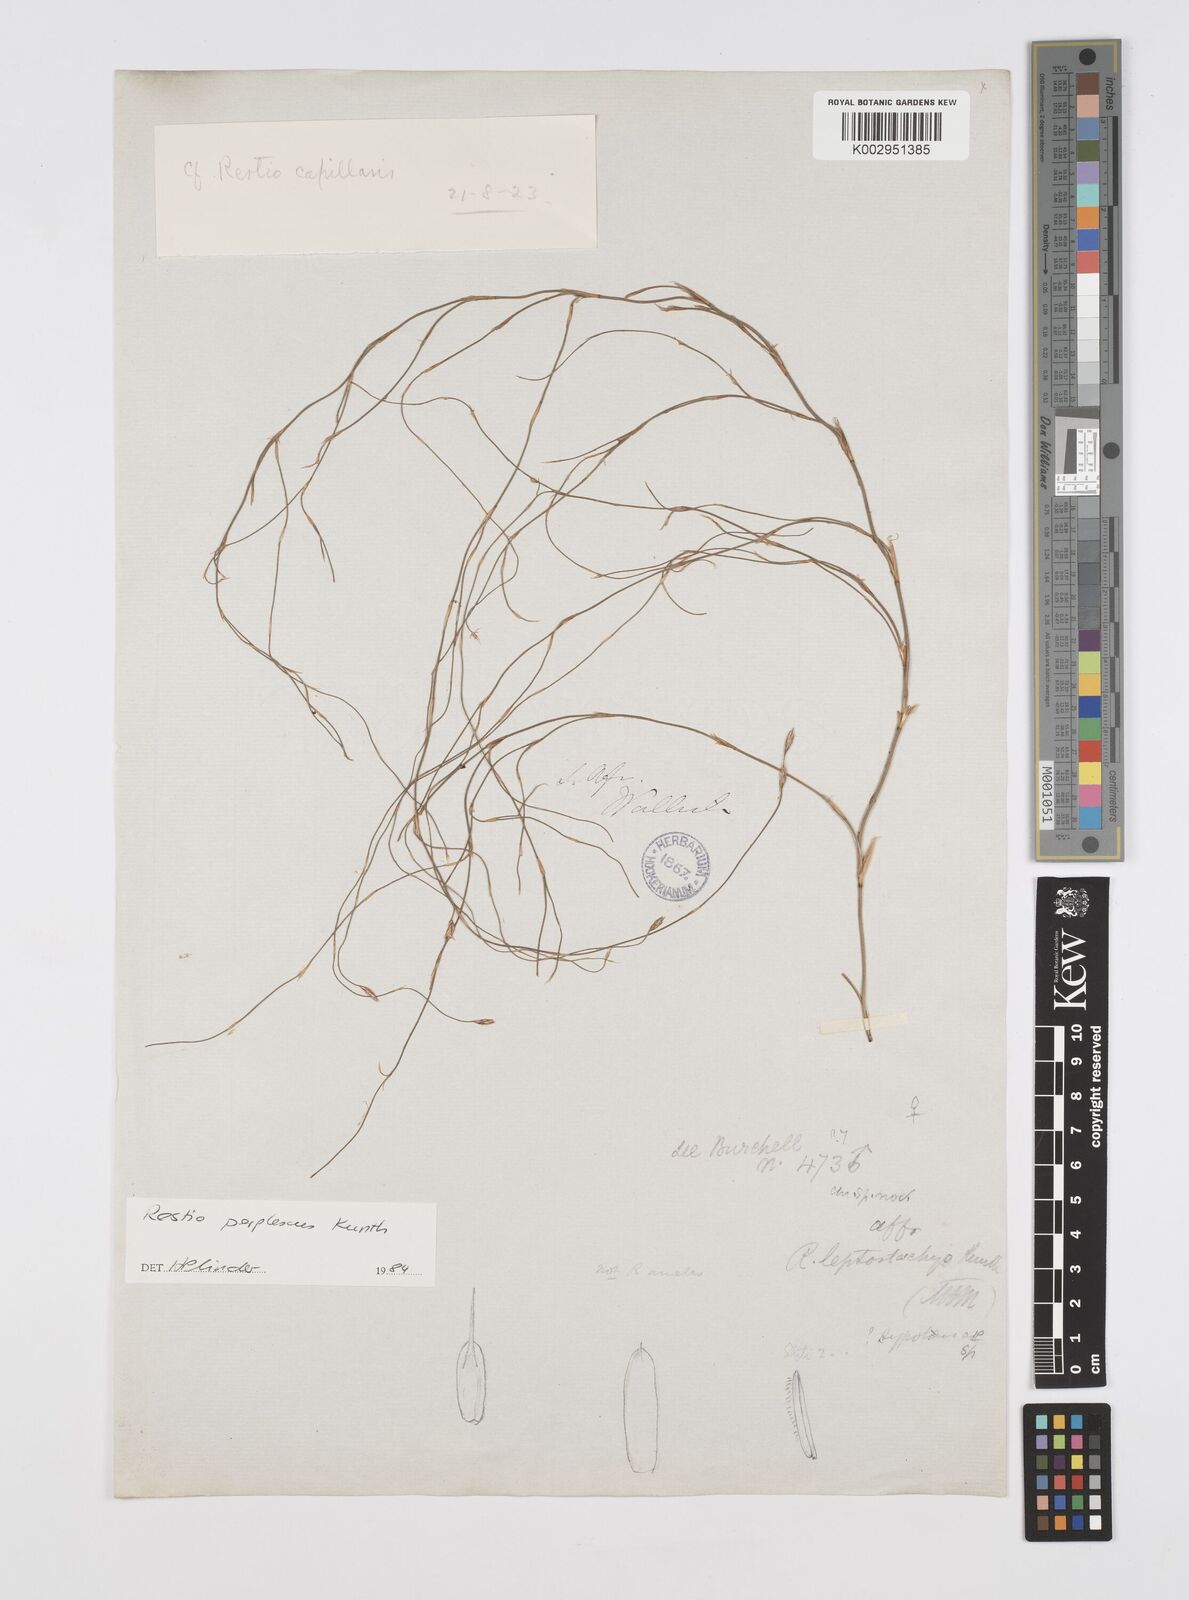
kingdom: Plantae
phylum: Tracheophyta
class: Liliopsida
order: Poales
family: Restionaceae
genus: Restio
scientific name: Restio perplexus
